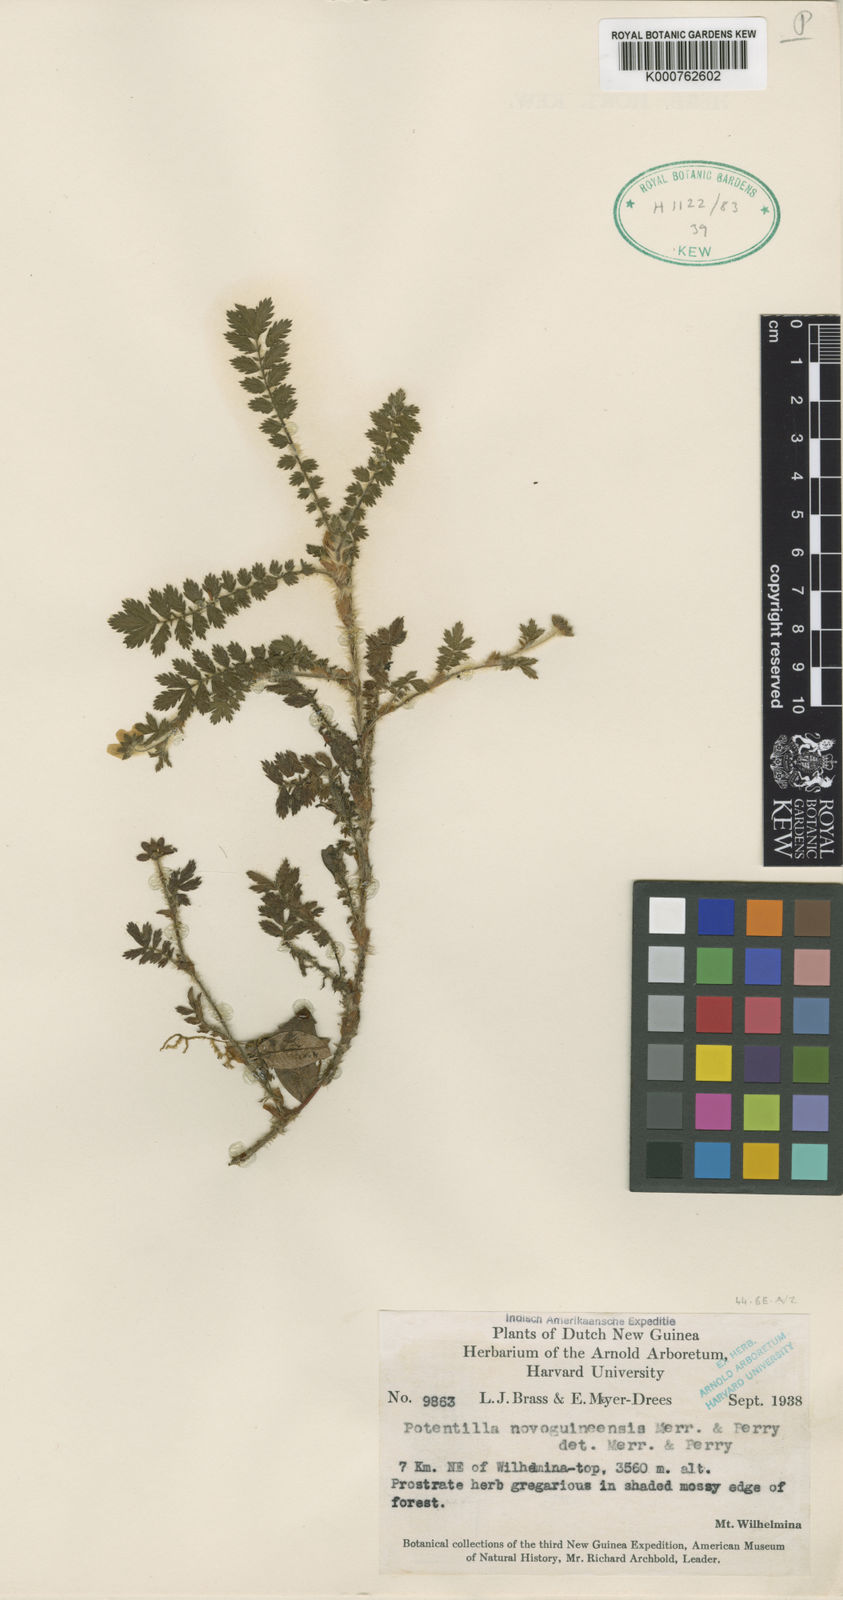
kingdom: Plantae
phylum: Tracheophyta
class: Magnoliopsida
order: Rosales
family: Rosaceae
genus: Argentina
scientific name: Argentina parvula
